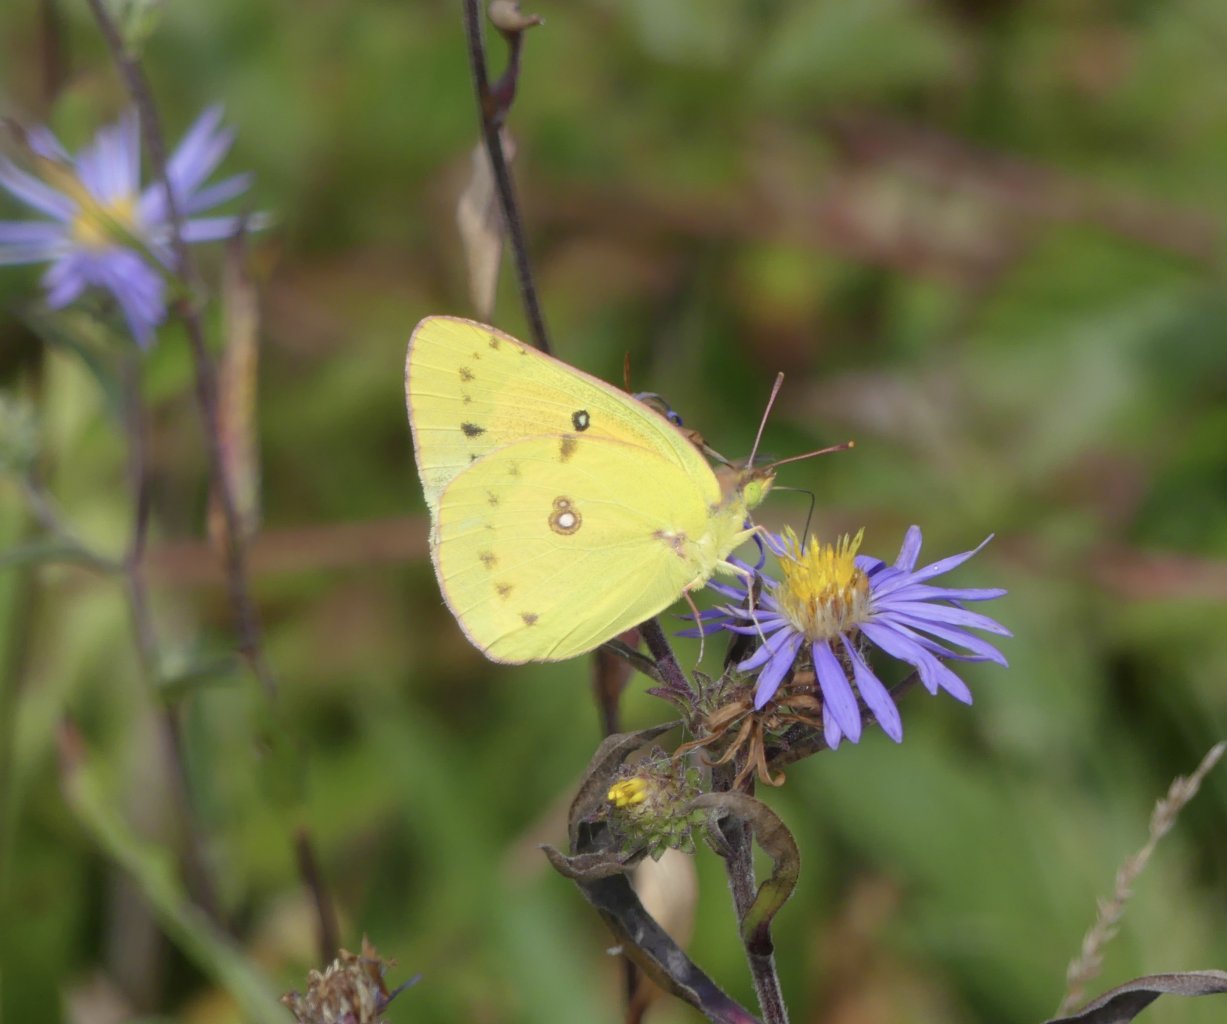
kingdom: Animalia
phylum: Arthropoda
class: Insecta
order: Lepidoptera
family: Pieridae
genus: Colias
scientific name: Colias eurytheme
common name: Orange Sulphur
